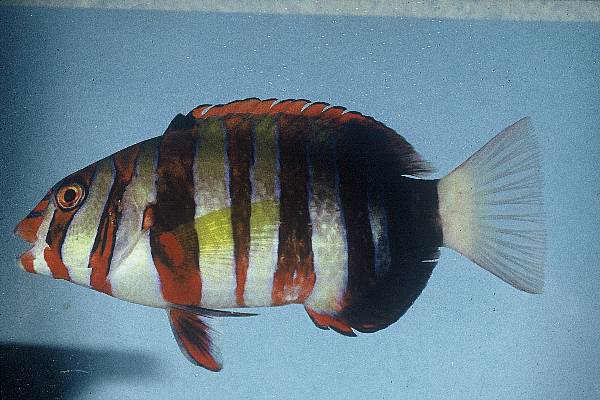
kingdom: Animalia
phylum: Chordata
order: Perciformes
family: Labridae
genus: Choerodon
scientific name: Choerodon fasciatus
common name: Harlequin tuskfish
